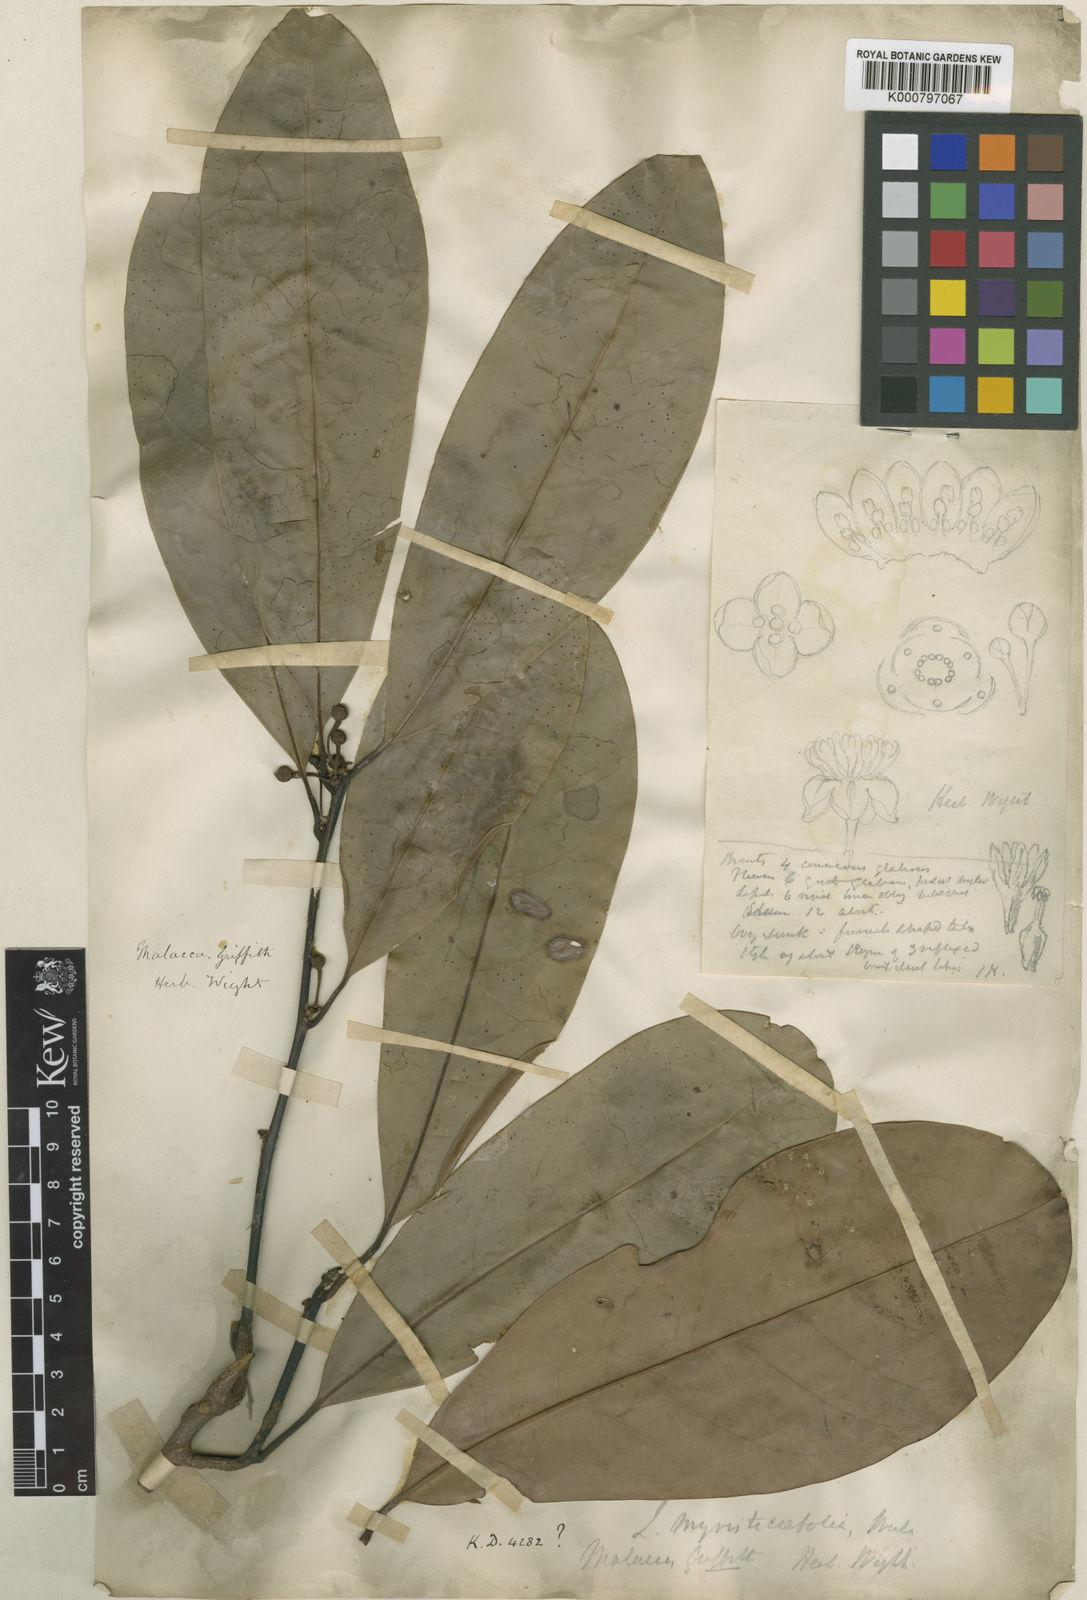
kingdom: Plantae
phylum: Tracheophyta
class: Magnoliopsida
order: Laurales
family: Lauraceae
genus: Litsea
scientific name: Litsea myristicifolia
